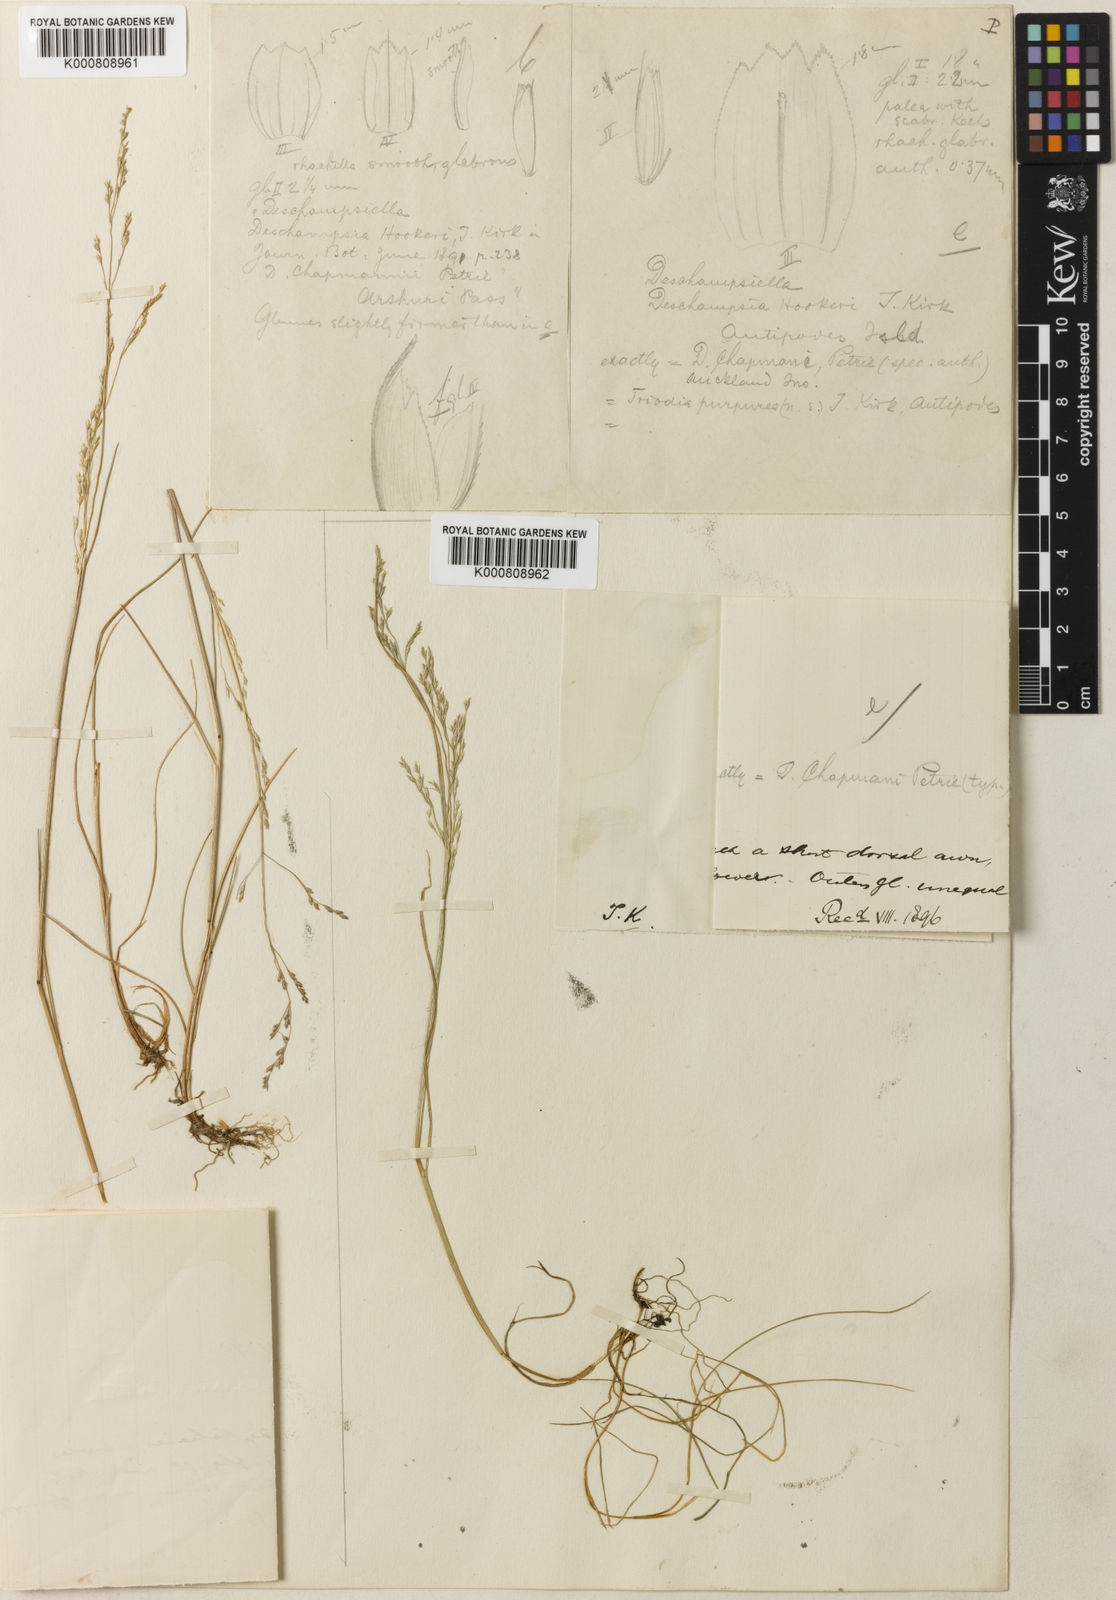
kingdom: Plantae
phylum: Tracheophyta
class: Liliopsida
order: Poales
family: Poaceae
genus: Deschampsia
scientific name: Deschampsia chapmanii
